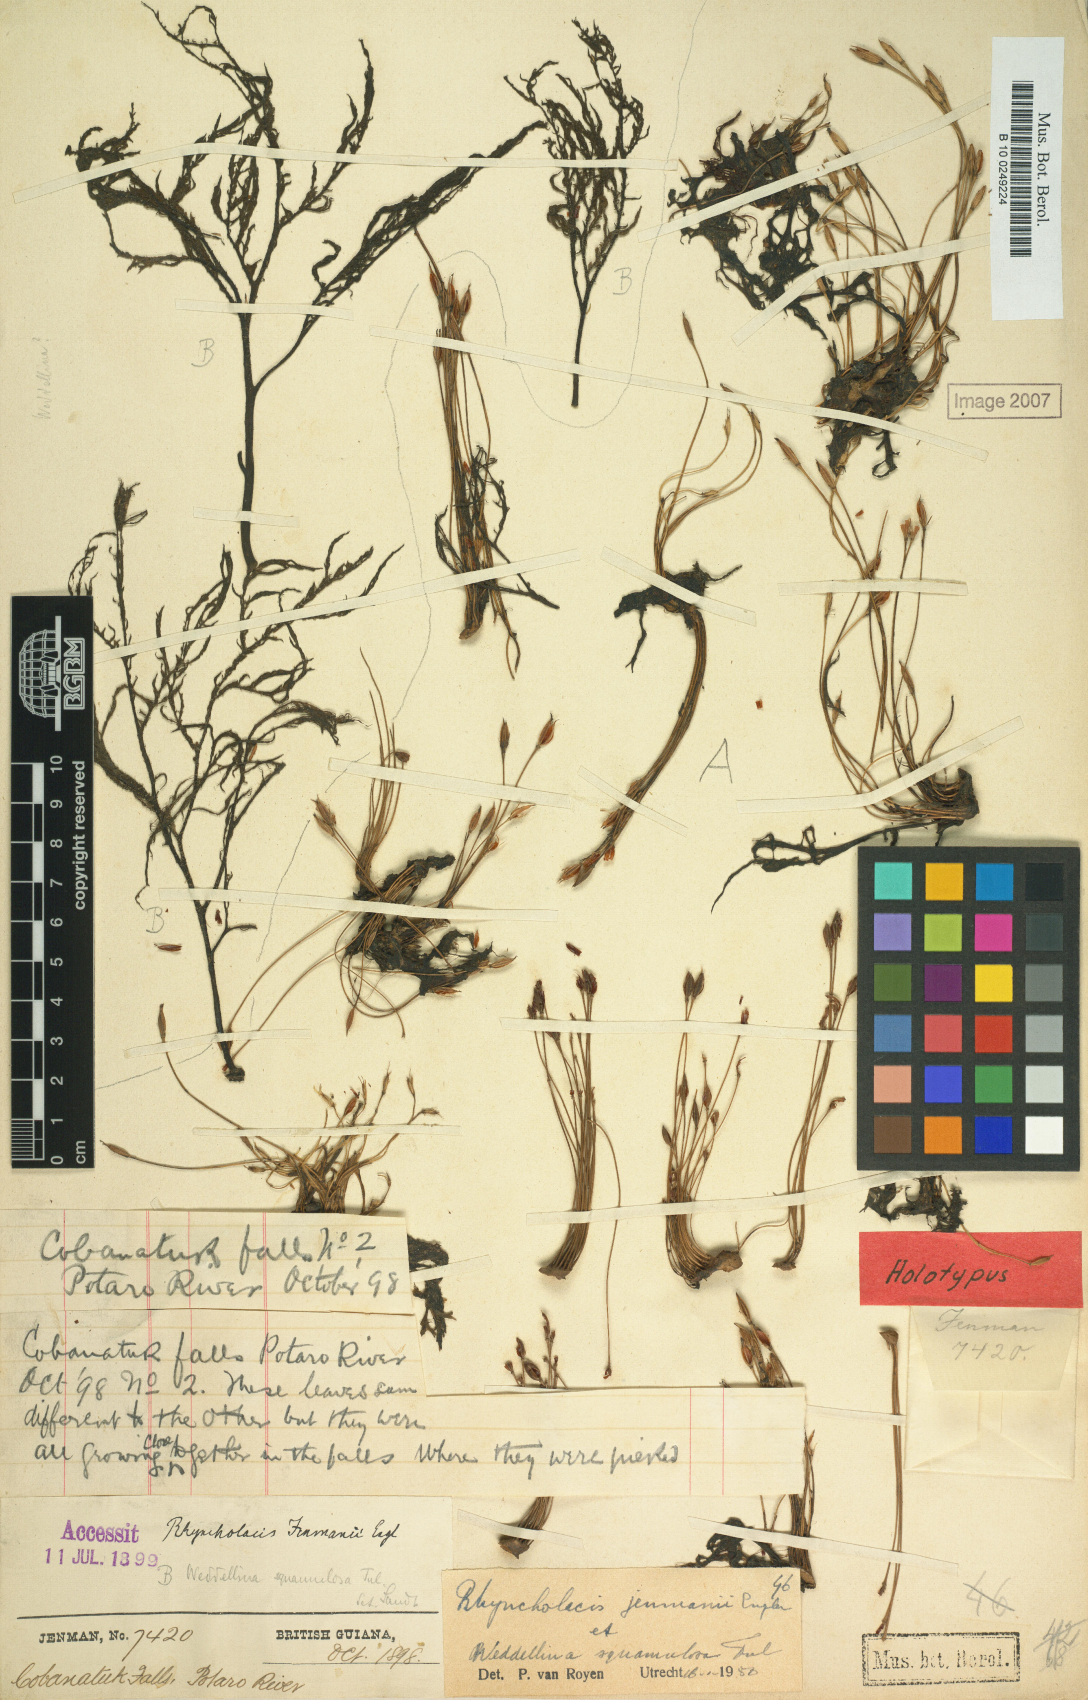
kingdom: Plantae
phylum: Tracheophyta
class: Magnoliopsida
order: Malpighiales
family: Podostemaceae
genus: Rhyncholacis
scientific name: Rhyncholacis jenmanii
